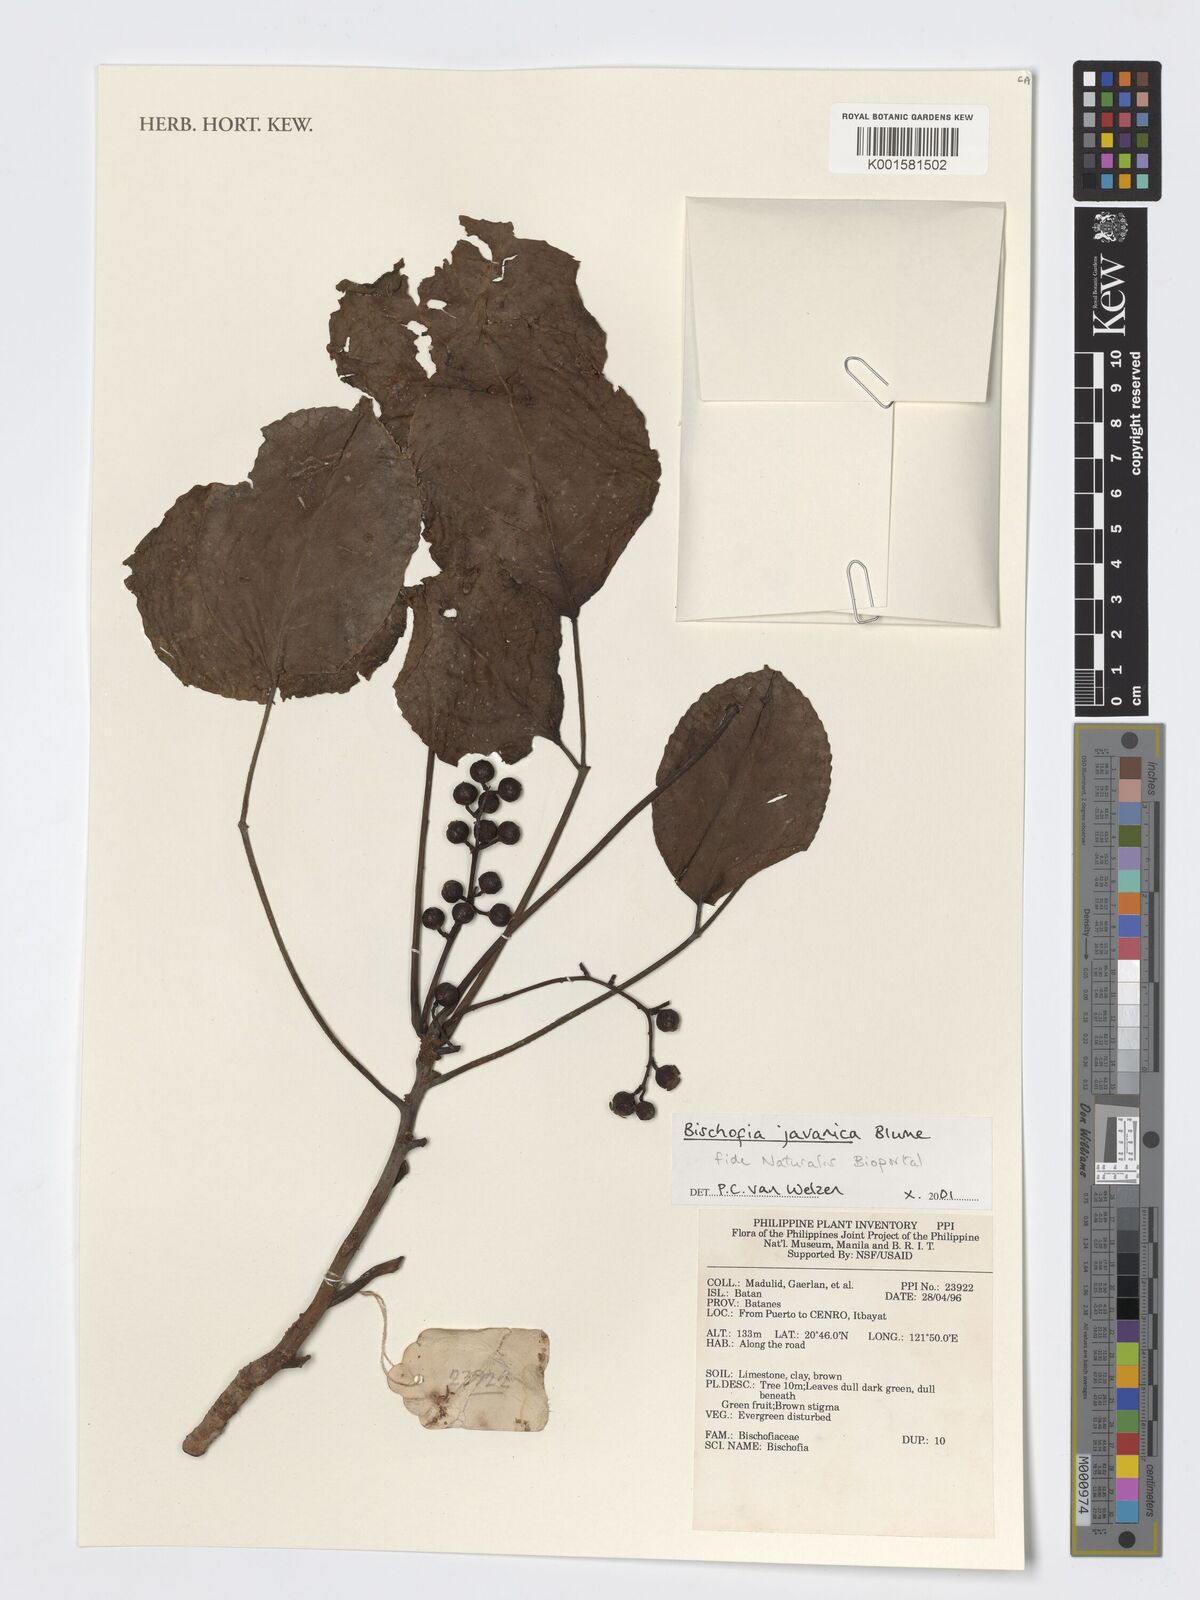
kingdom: Plantae
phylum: Tracheophyta
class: Magnoliopsida
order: Malpighiales
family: Phyllanthaceae
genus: Bischofia
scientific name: Bischofia javanica
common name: Javanese bishopwood
